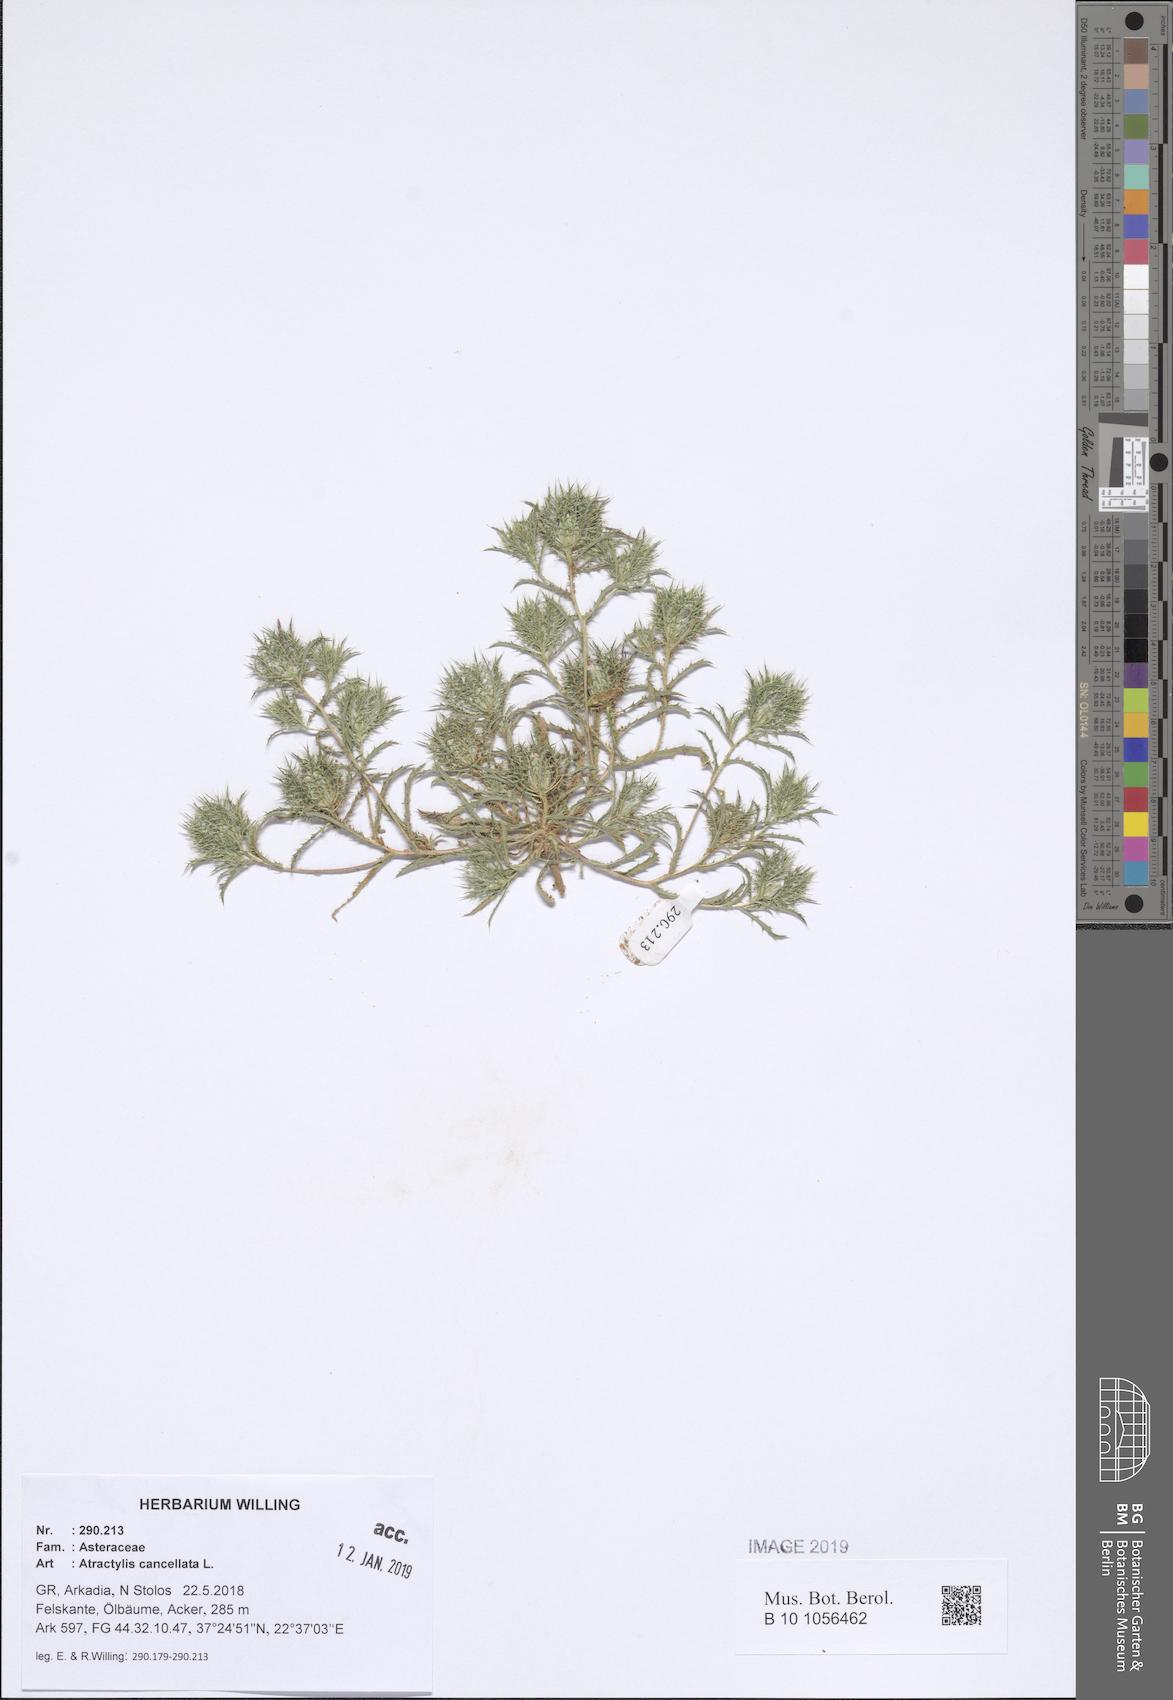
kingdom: Plantae
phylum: Tracheophyta
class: Magnoliopsida
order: Asterales
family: Asteraceae
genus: Atractylis
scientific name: Atractylis cancellata
